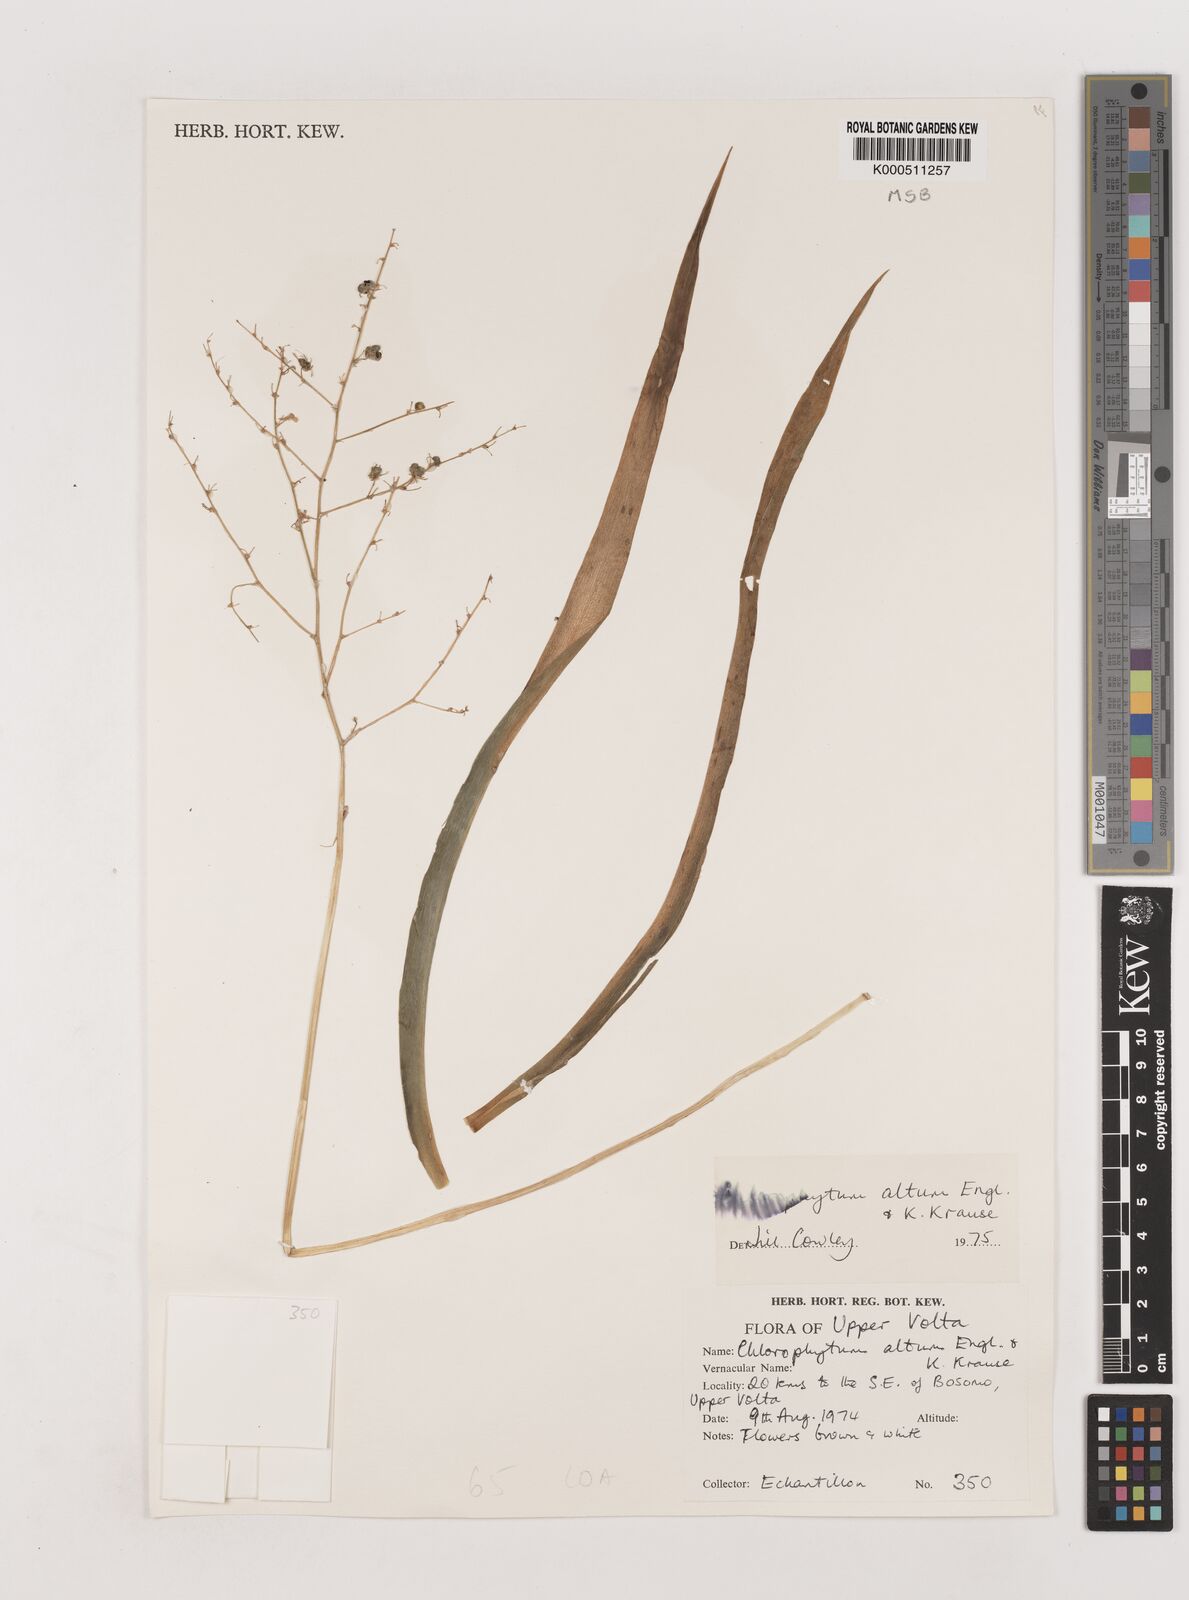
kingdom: Plantae
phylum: Tracheophyta
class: Liliopsida
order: Asparagales
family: Asparagaceae
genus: Chlorophytum
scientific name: Chlorophytum altum
